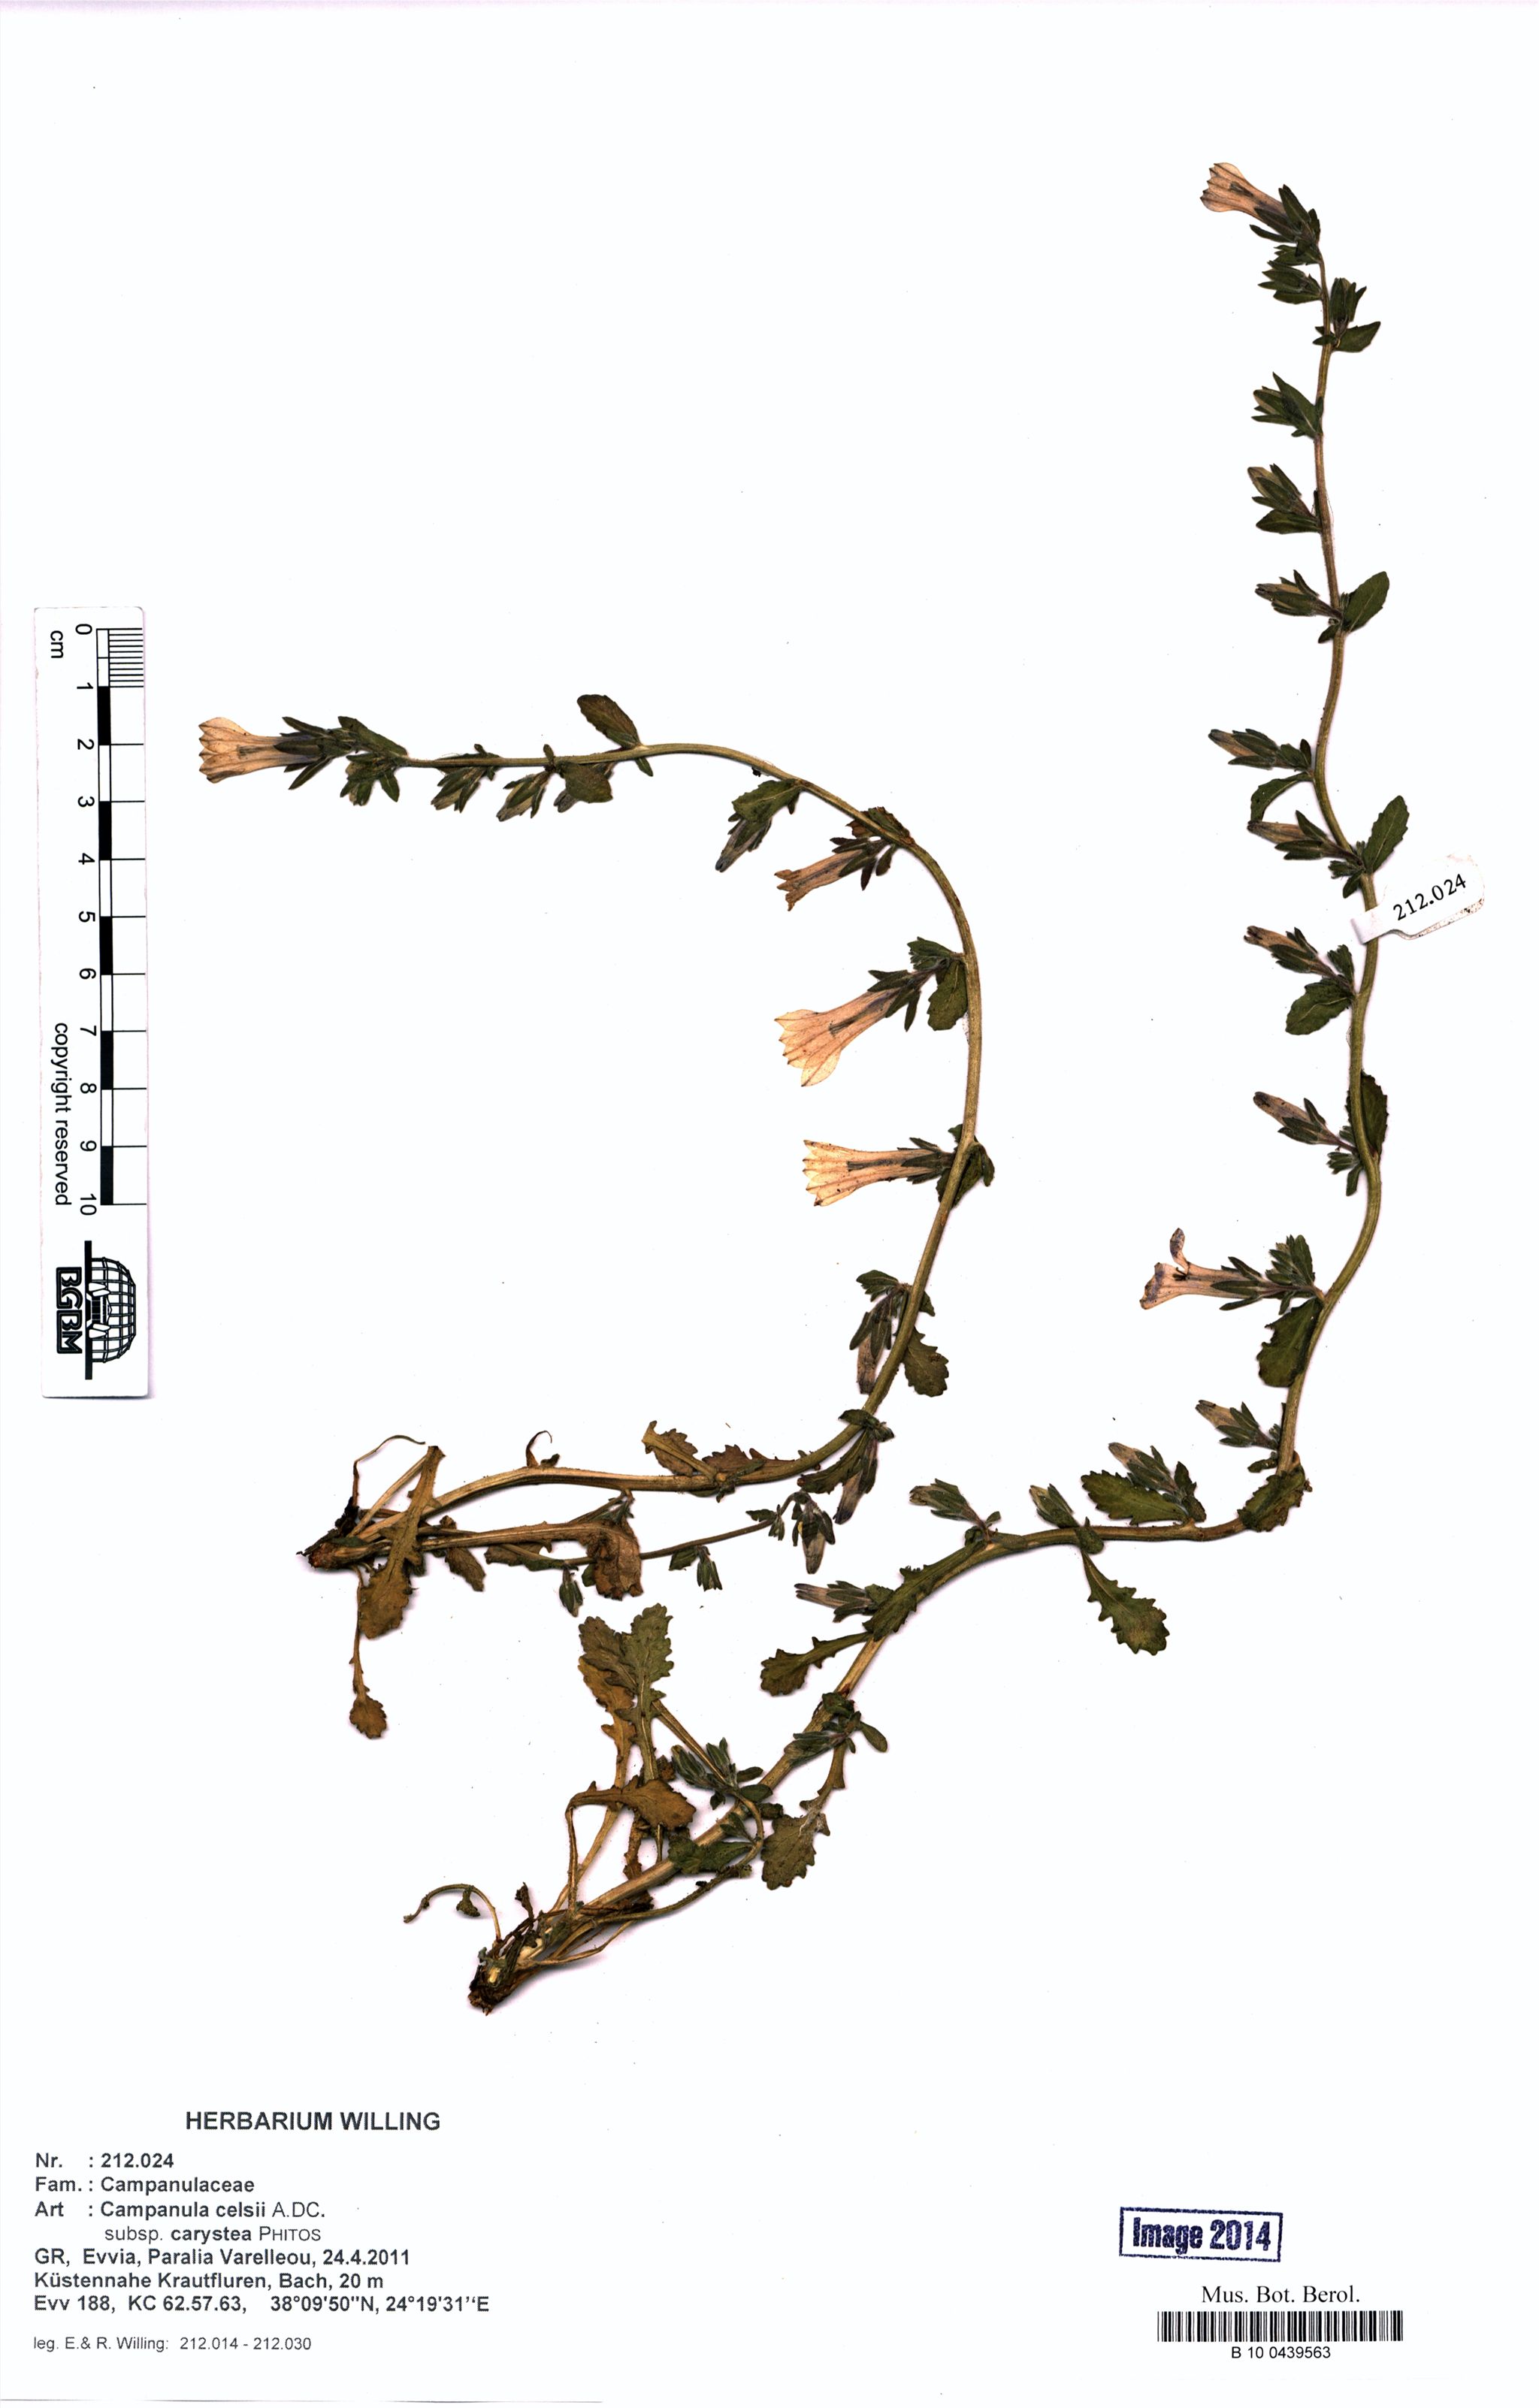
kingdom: Plantae
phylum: Tracheophyta
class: Magnoliopsida
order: Asterales
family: Campanulaceae
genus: Campanula
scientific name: Campanula celsii
